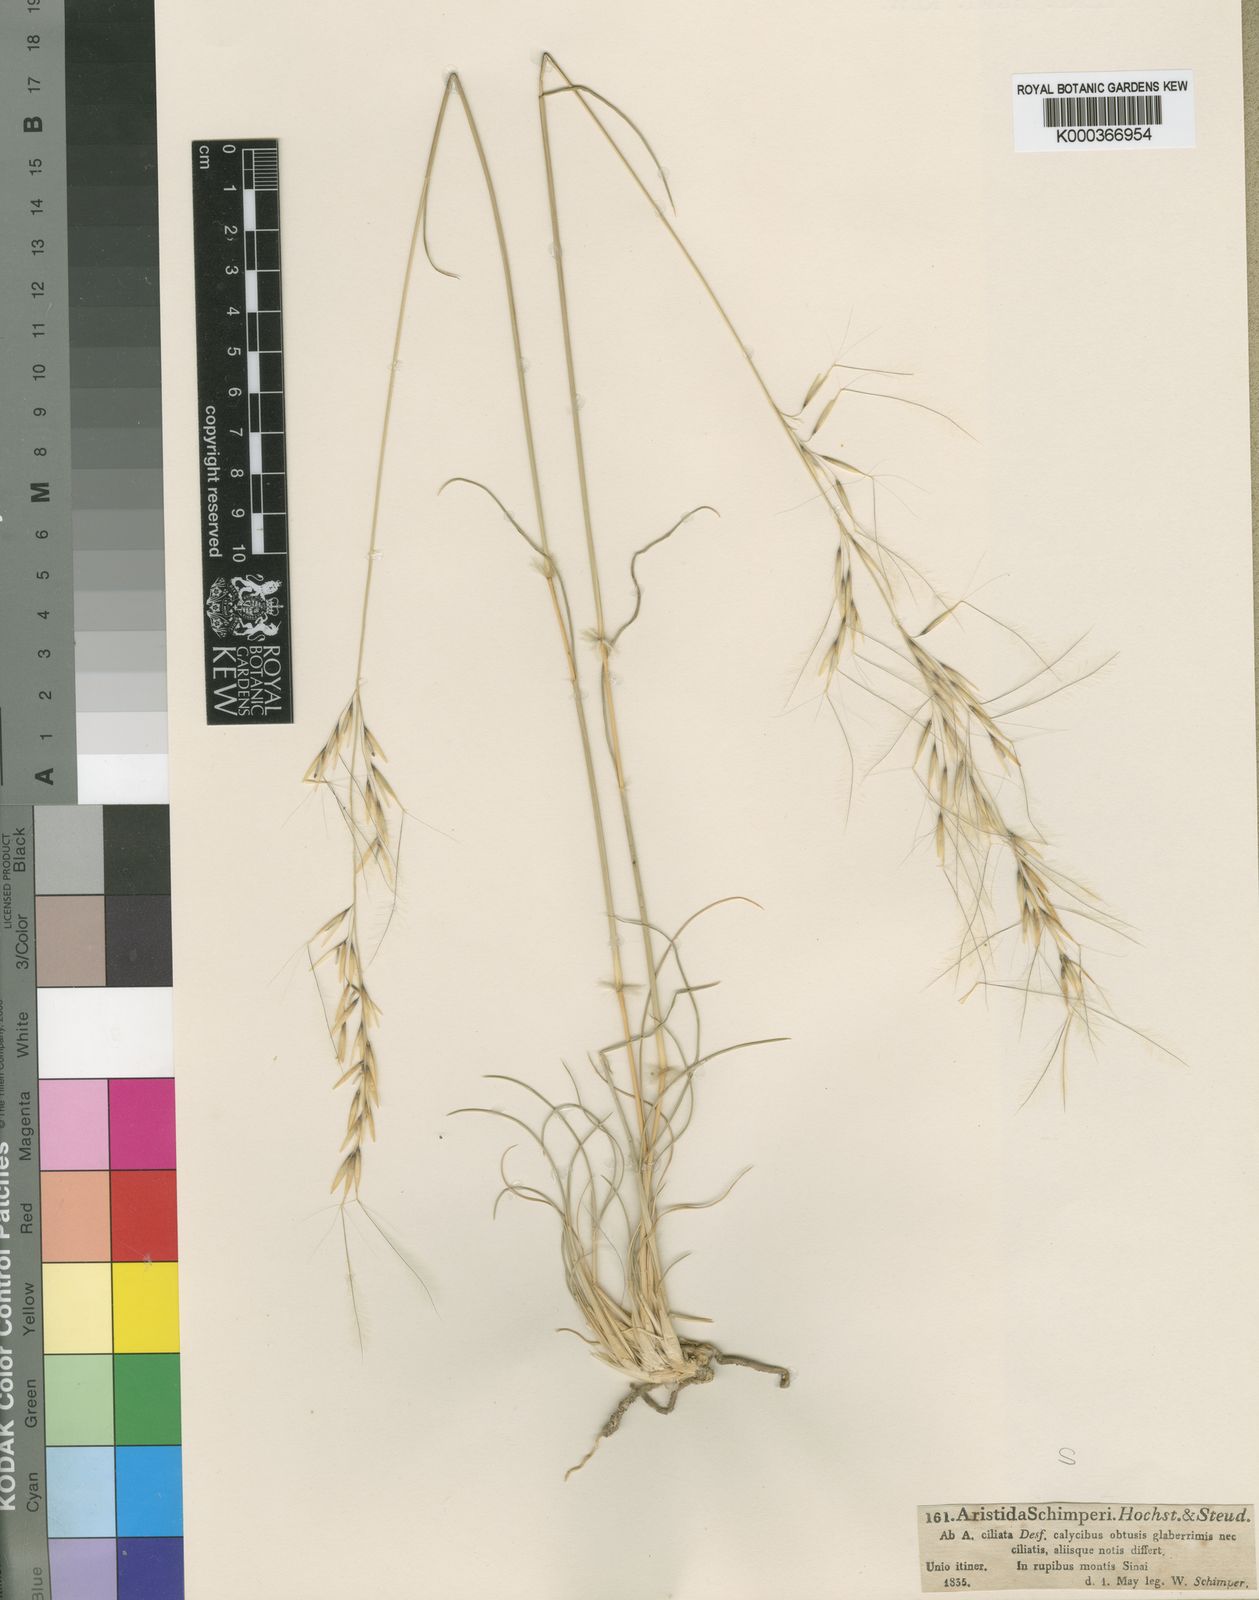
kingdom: Plantae
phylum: Tracheophyta
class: Liliopsida
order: Poales
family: Poaceae
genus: Stipagrostis
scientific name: Stipagrostis ciliata
